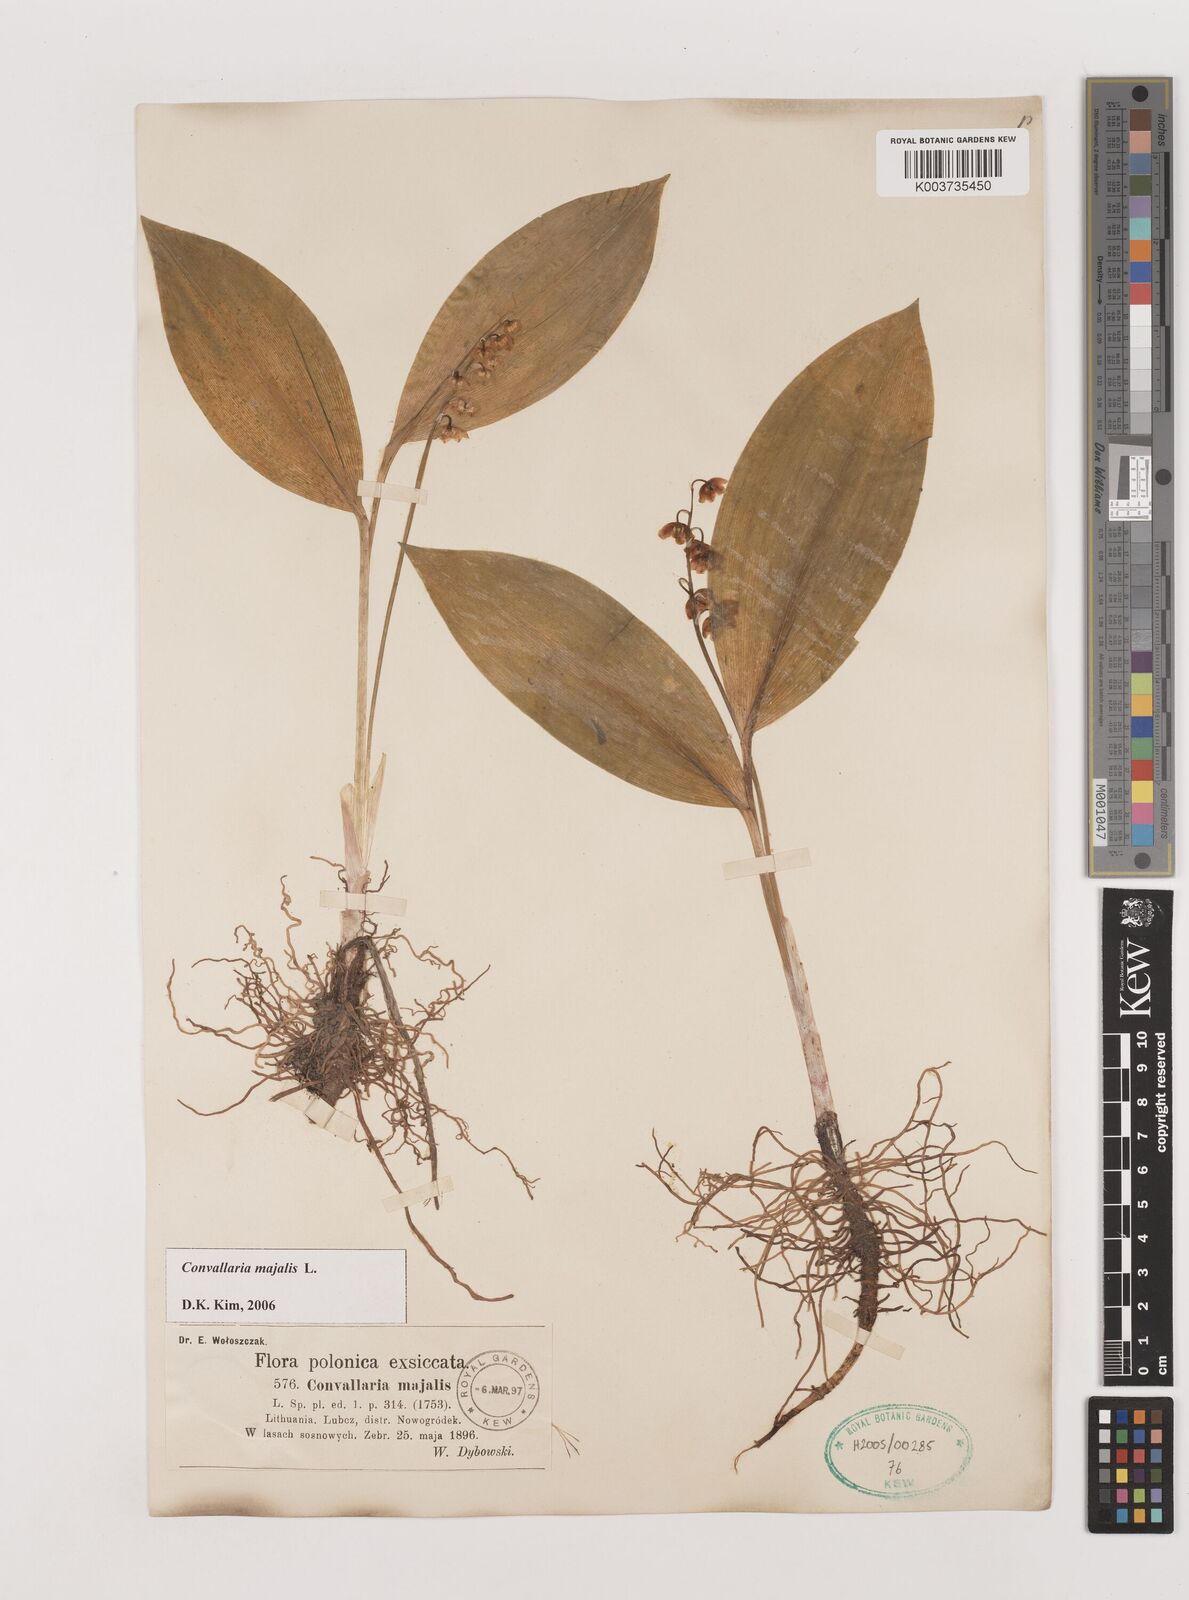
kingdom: Plantae
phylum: Tracheophyta
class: Liliopsida
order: Asparagales
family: Asparagaceae
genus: Convallaria
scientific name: Convallaria majalis
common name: Lily-of-the-valley
